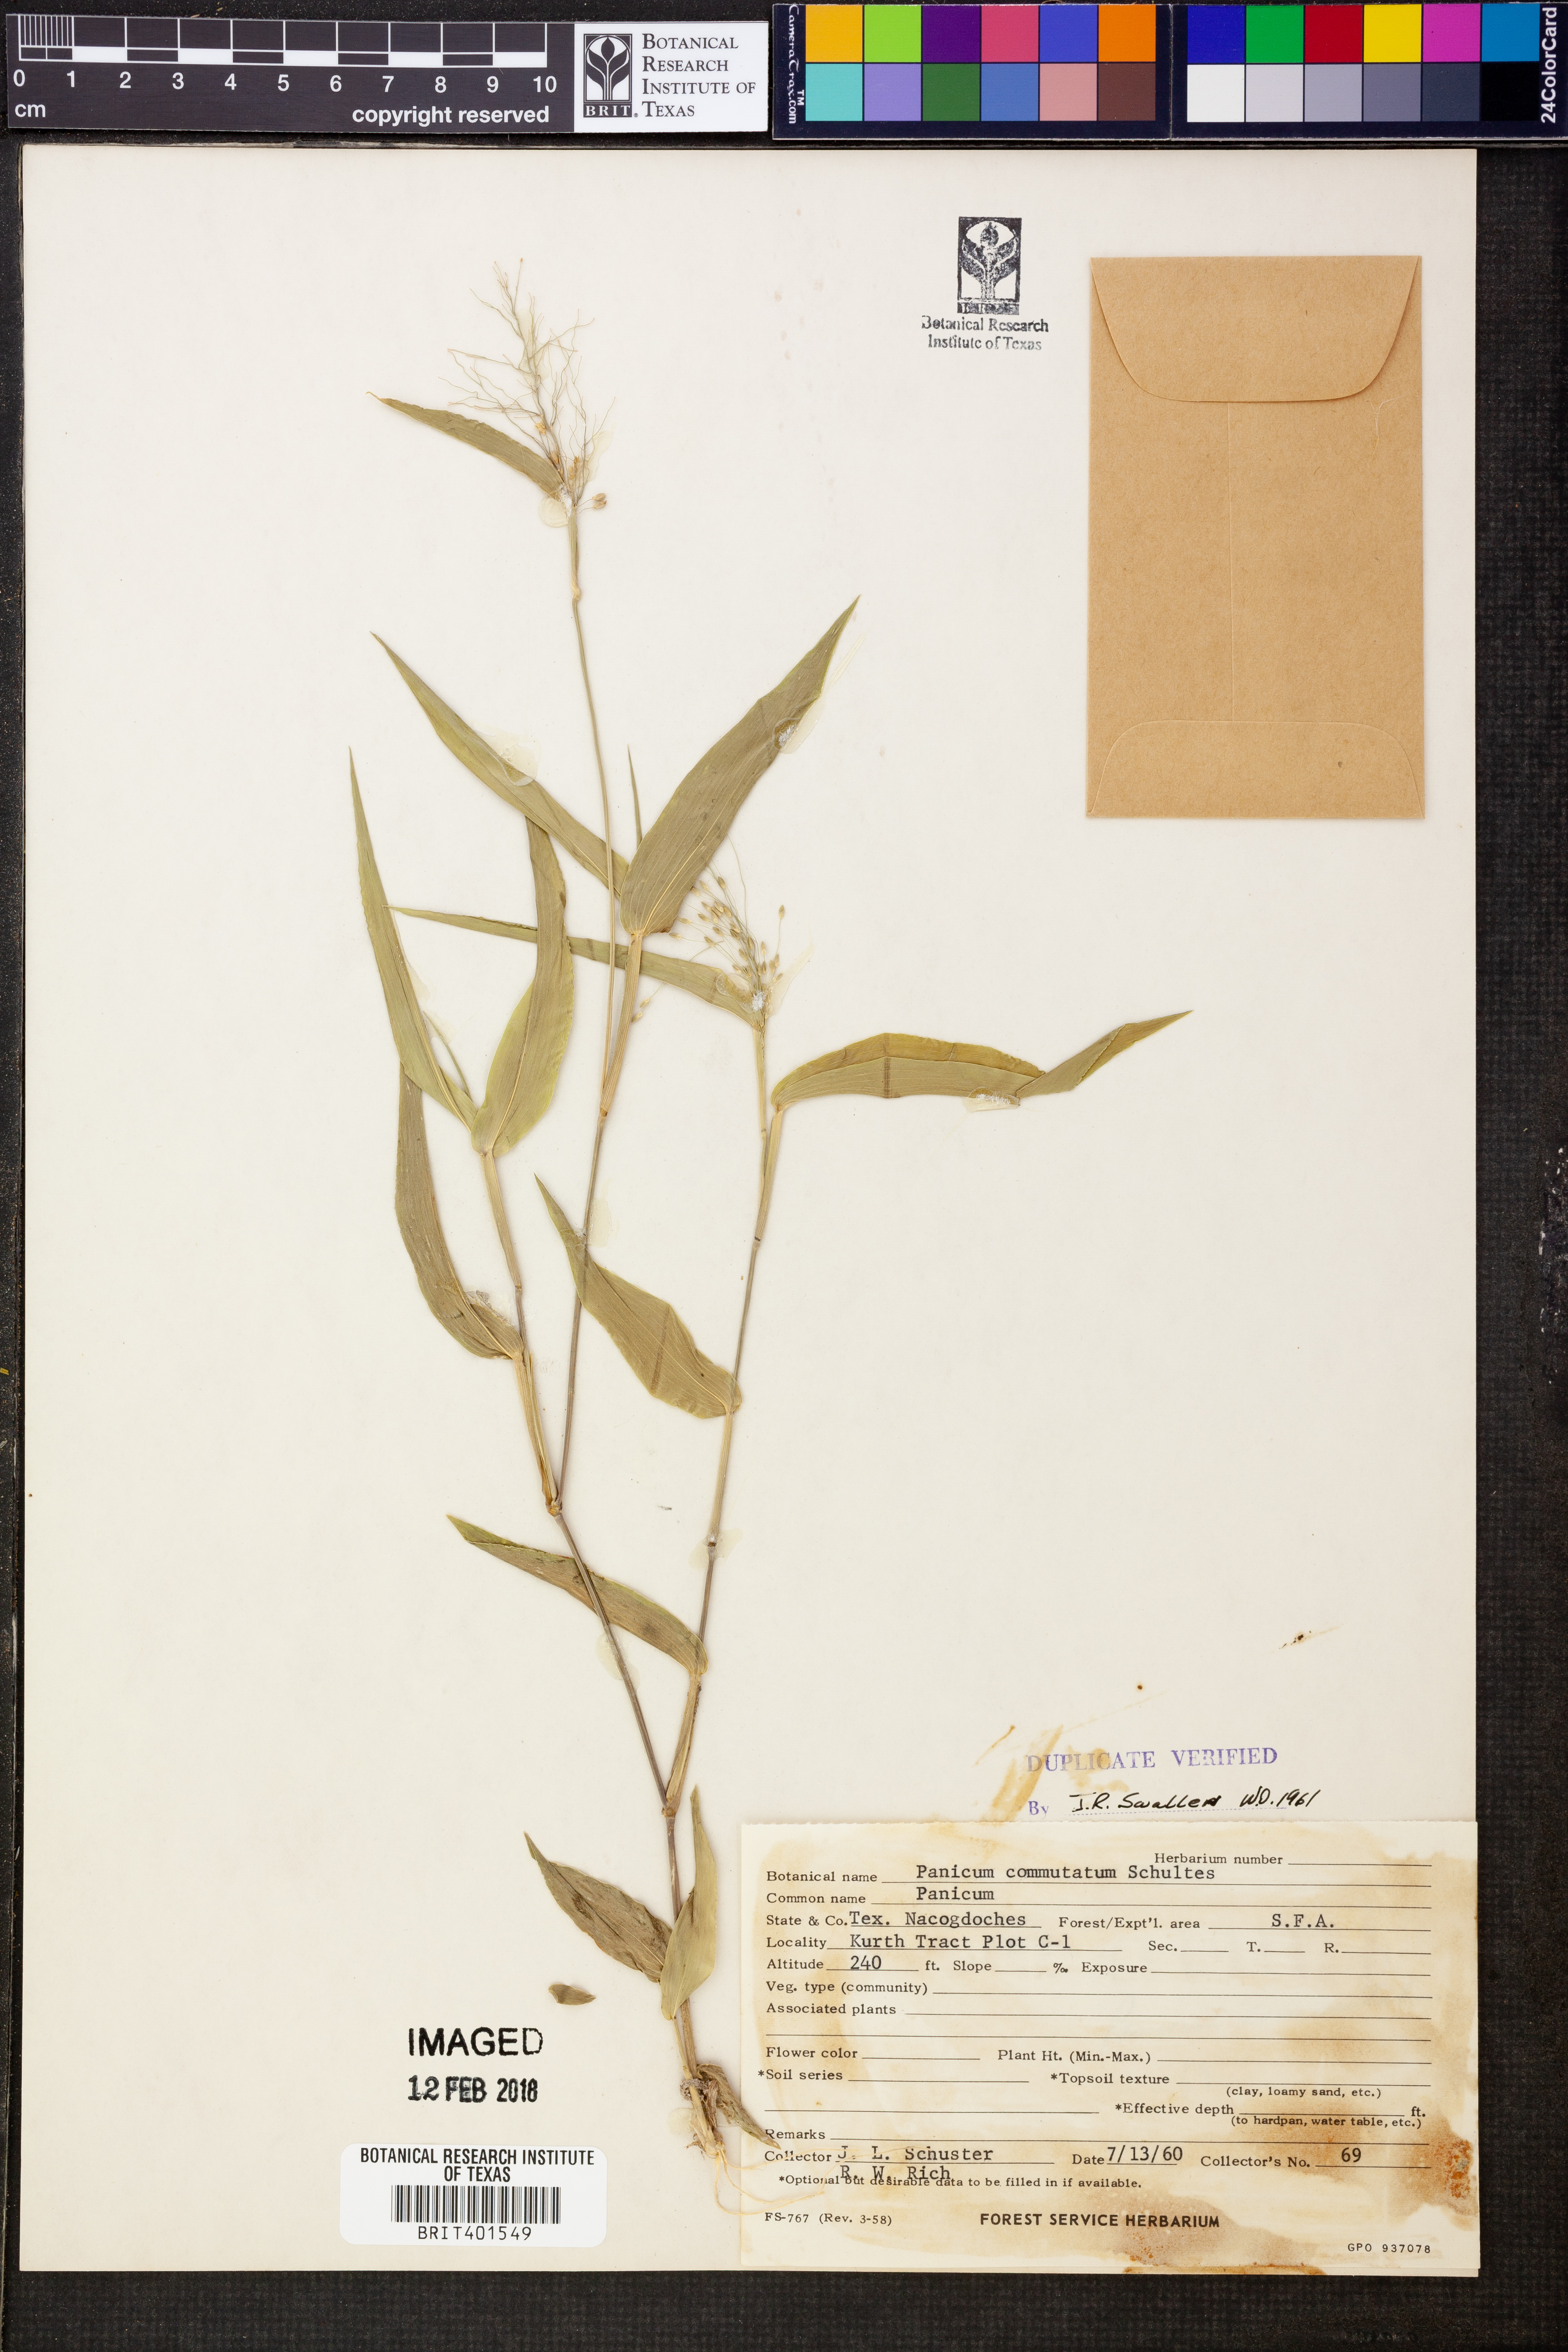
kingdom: Plantae
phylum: Tracheophyta
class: Liliopsida
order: Poales
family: Poaceae
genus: Dichanthelium
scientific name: Dichanthelium commutatum
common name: Variable witchgrass
